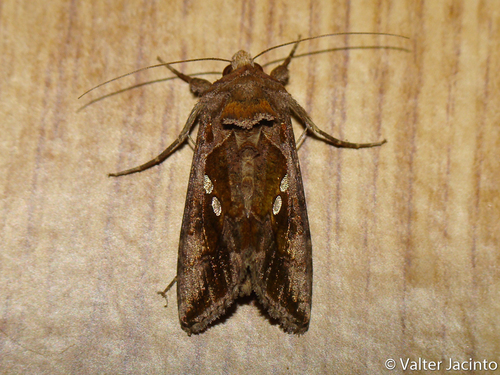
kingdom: Animalia
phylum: Arthropoda
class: Insecta
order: Lepidoptera
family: Noctuidae
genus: Chrysodeixis
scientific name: Chrysodeixis chalcites
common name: Golden twin-spot
